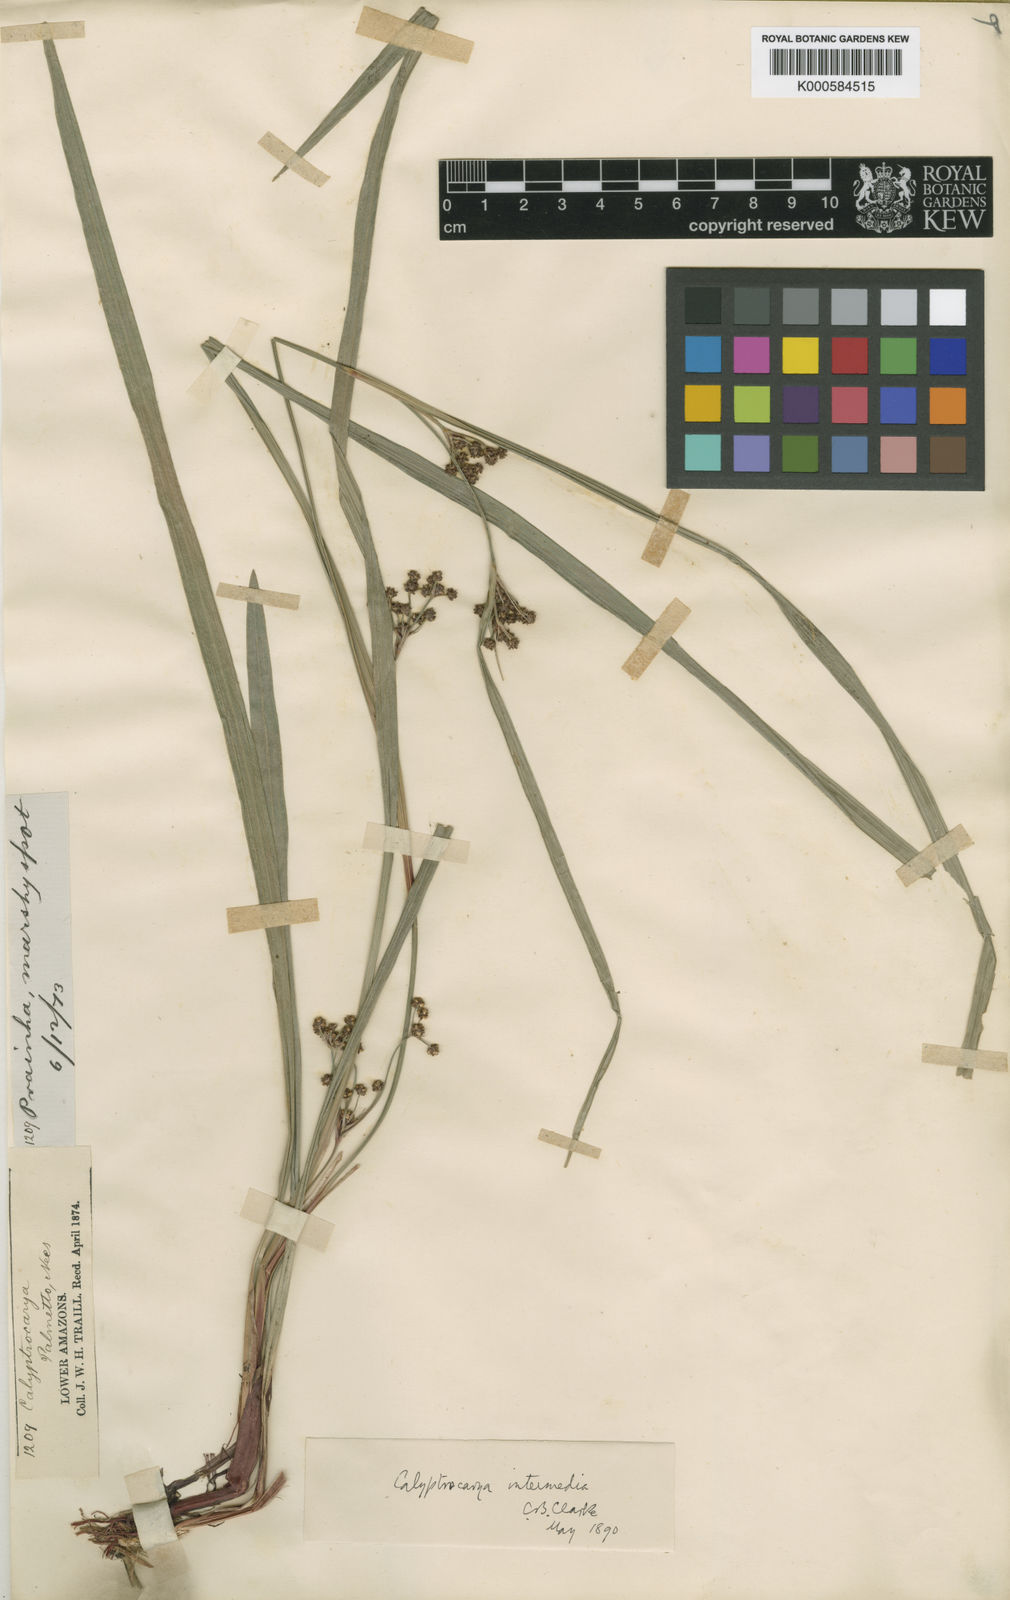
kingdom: Plantae
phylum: Tracheophyta
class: Liliopsida
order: Poales
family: Cyperaceae
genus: Calyptrocarya
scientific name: Calyptrocarya glomerulata
